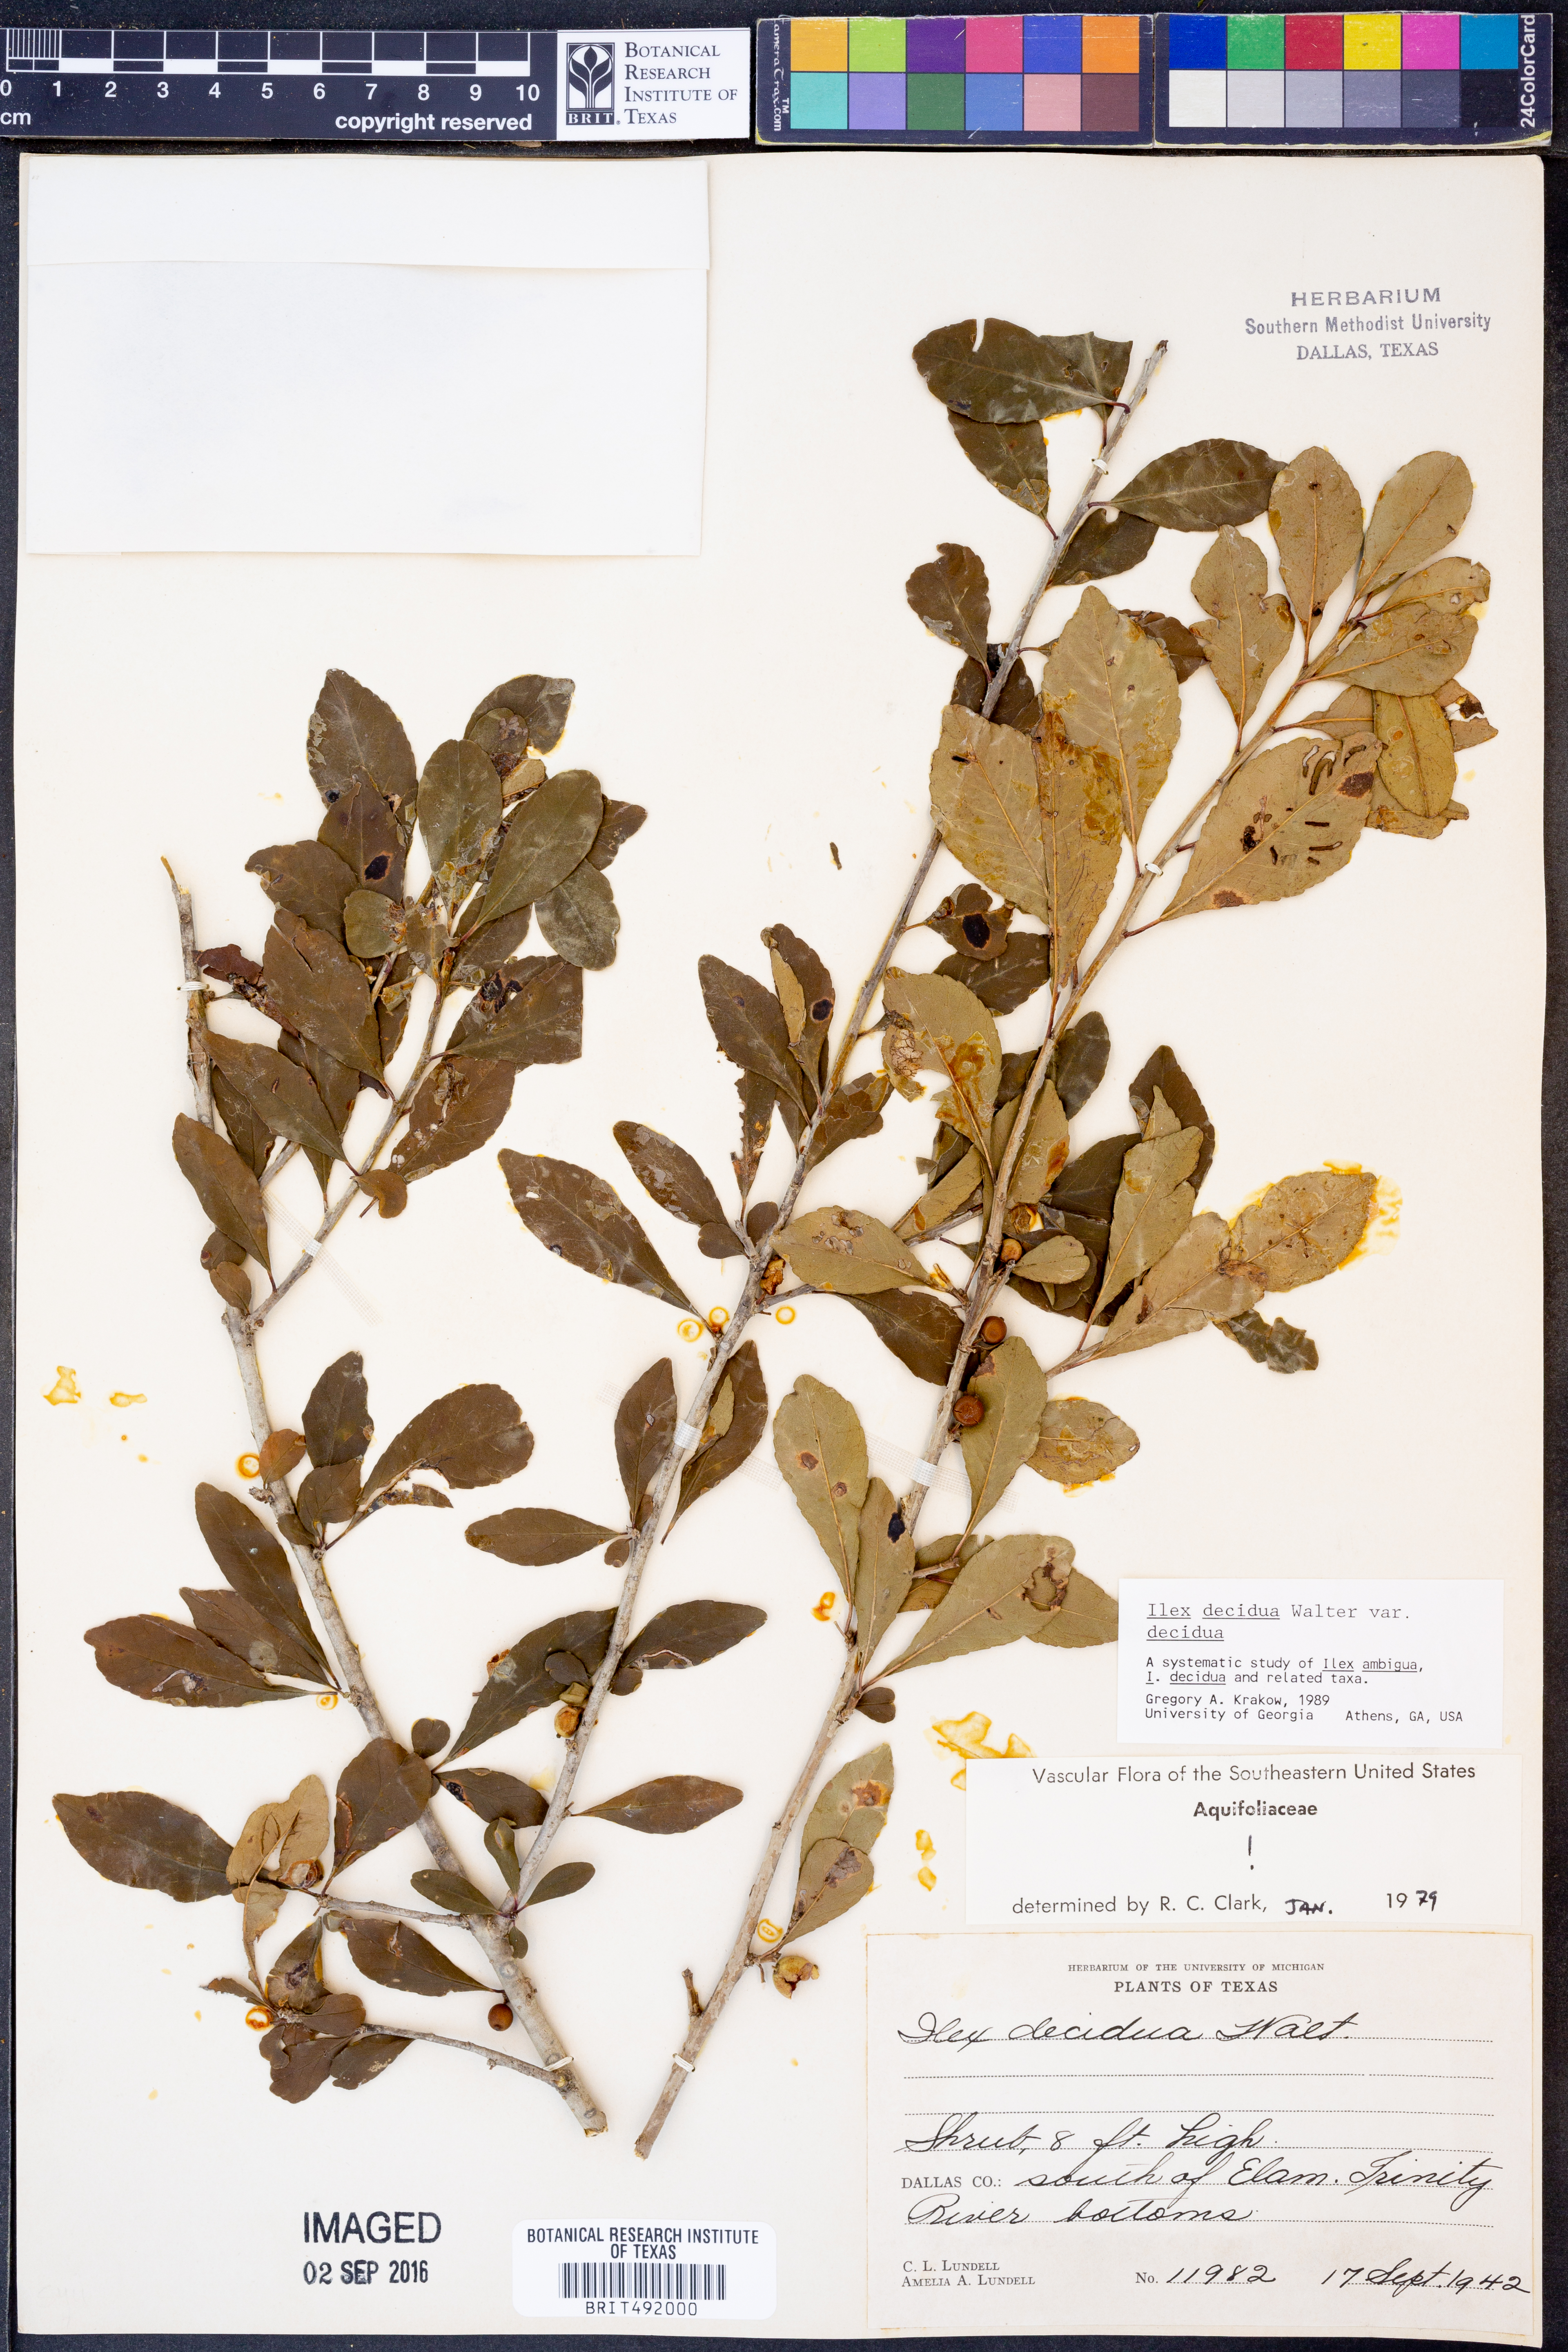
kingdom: Plantae
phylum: Tracheophyta
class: Magnoliopsida
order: Aquifoliales
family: Aquifoliaceae
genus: Ilex
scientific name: Ilex decidua
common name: Possum-haw
